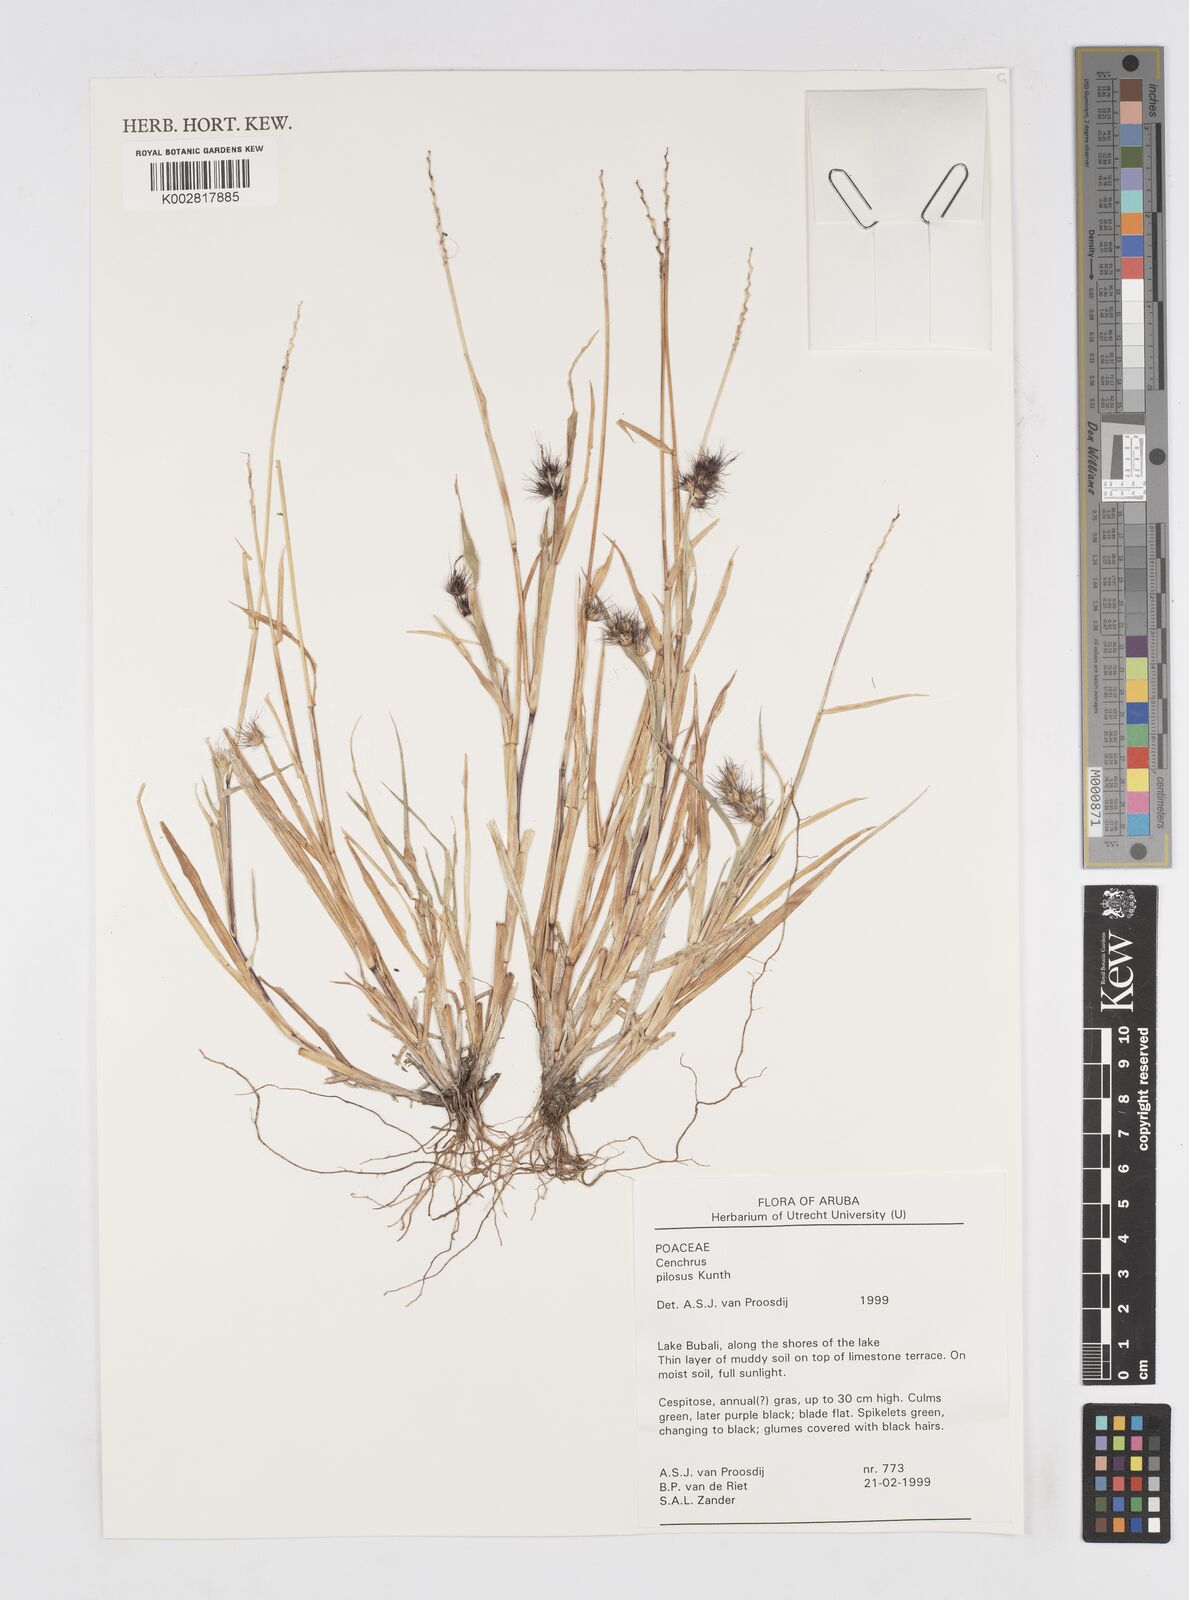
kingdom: Plantae
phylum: Tracheophyta
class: Liliopsida
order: Poales
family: Poaceae
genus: Cenchrus
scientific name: Cenchrus pilosus
